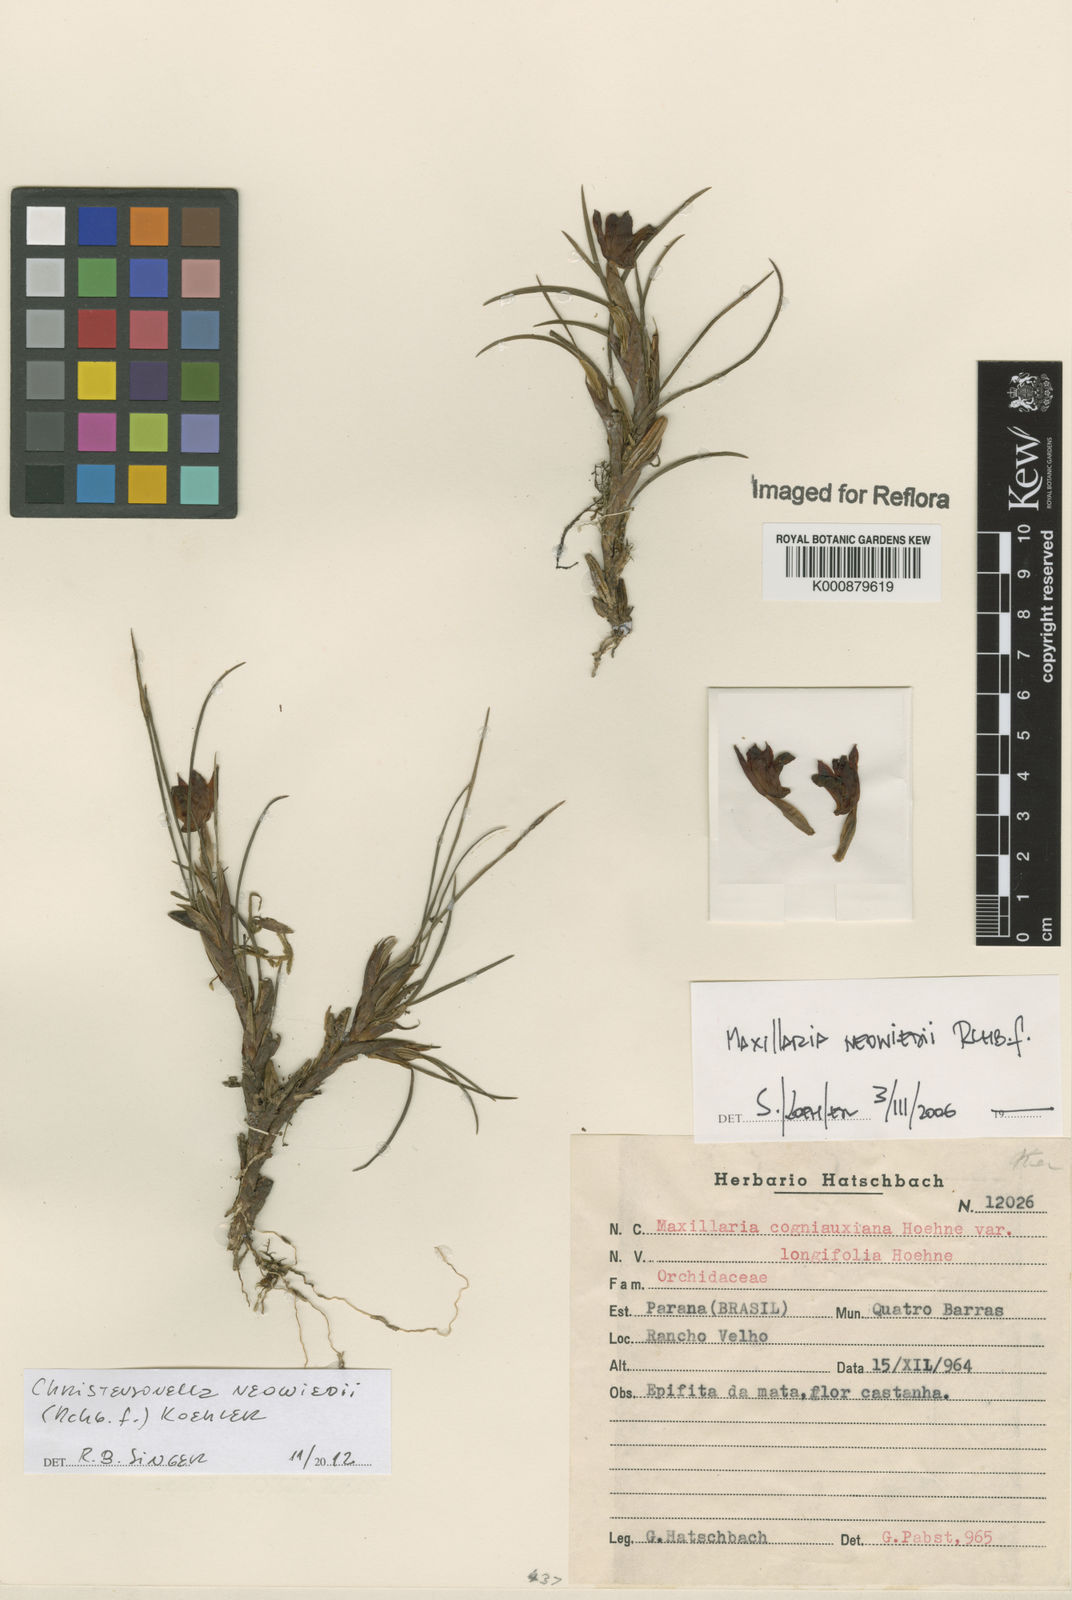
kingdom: Plantae
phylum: Tracheophyta
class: Liliopsida
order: Asparagales
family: Orchidaceae
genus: Maxillaria
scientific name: Maxillaria
